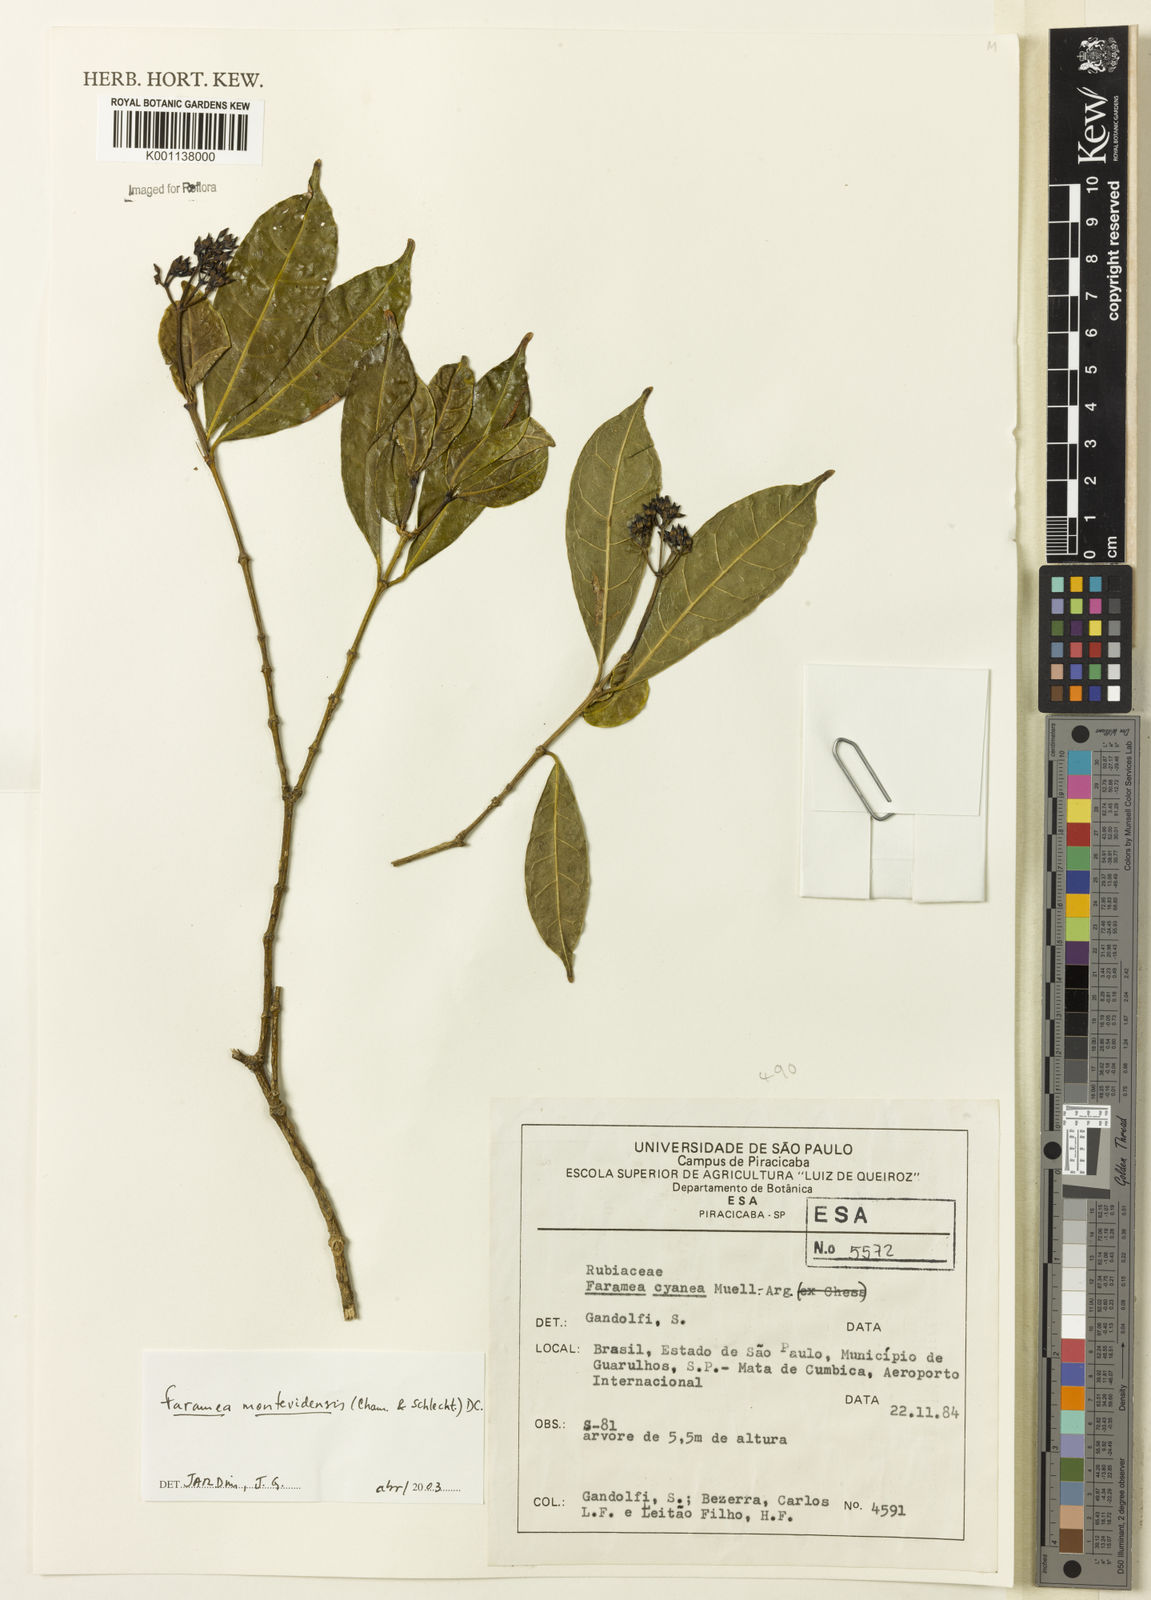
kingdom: Plantae
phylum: Tracheophyta
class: Magnoliopsida
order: Gentianales
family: Rubiaceae
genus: Faramea
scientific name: Faramea montevidensis
